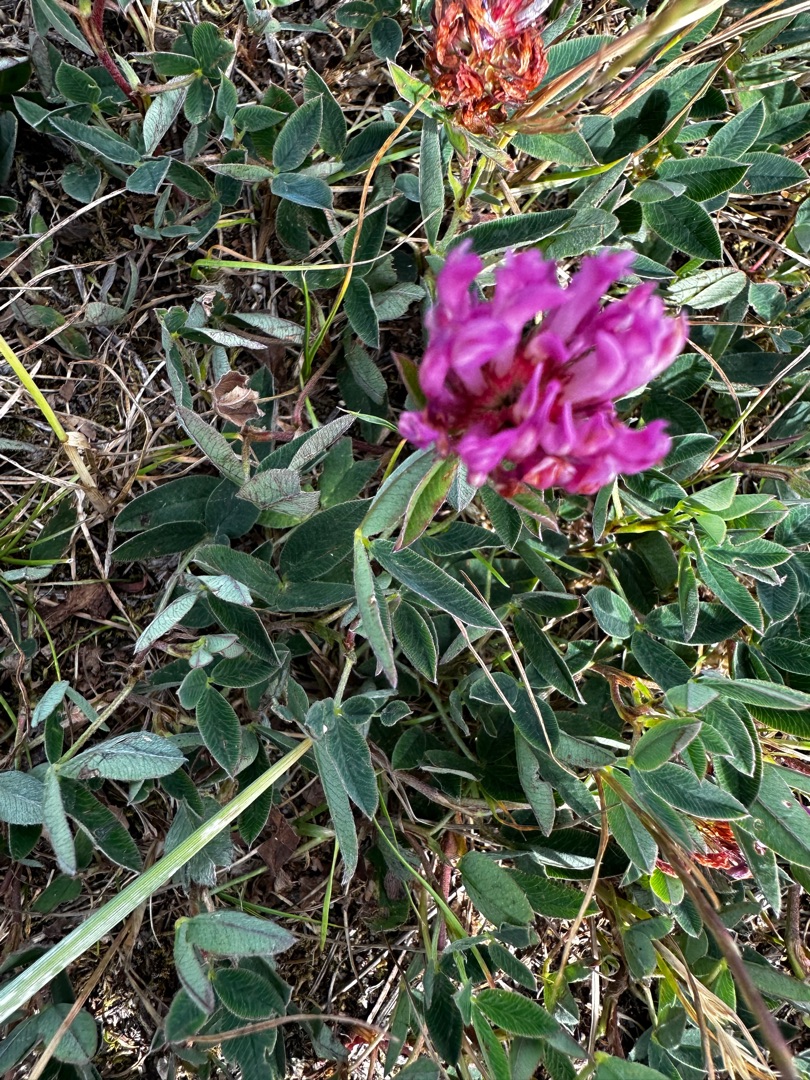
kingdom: Plantae
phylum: Tracheophyta
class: Magnoliopsida
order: Fabales
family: Fabaceae
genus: Trifolium
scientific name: Trifolium medium
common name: Bugtet kløver
